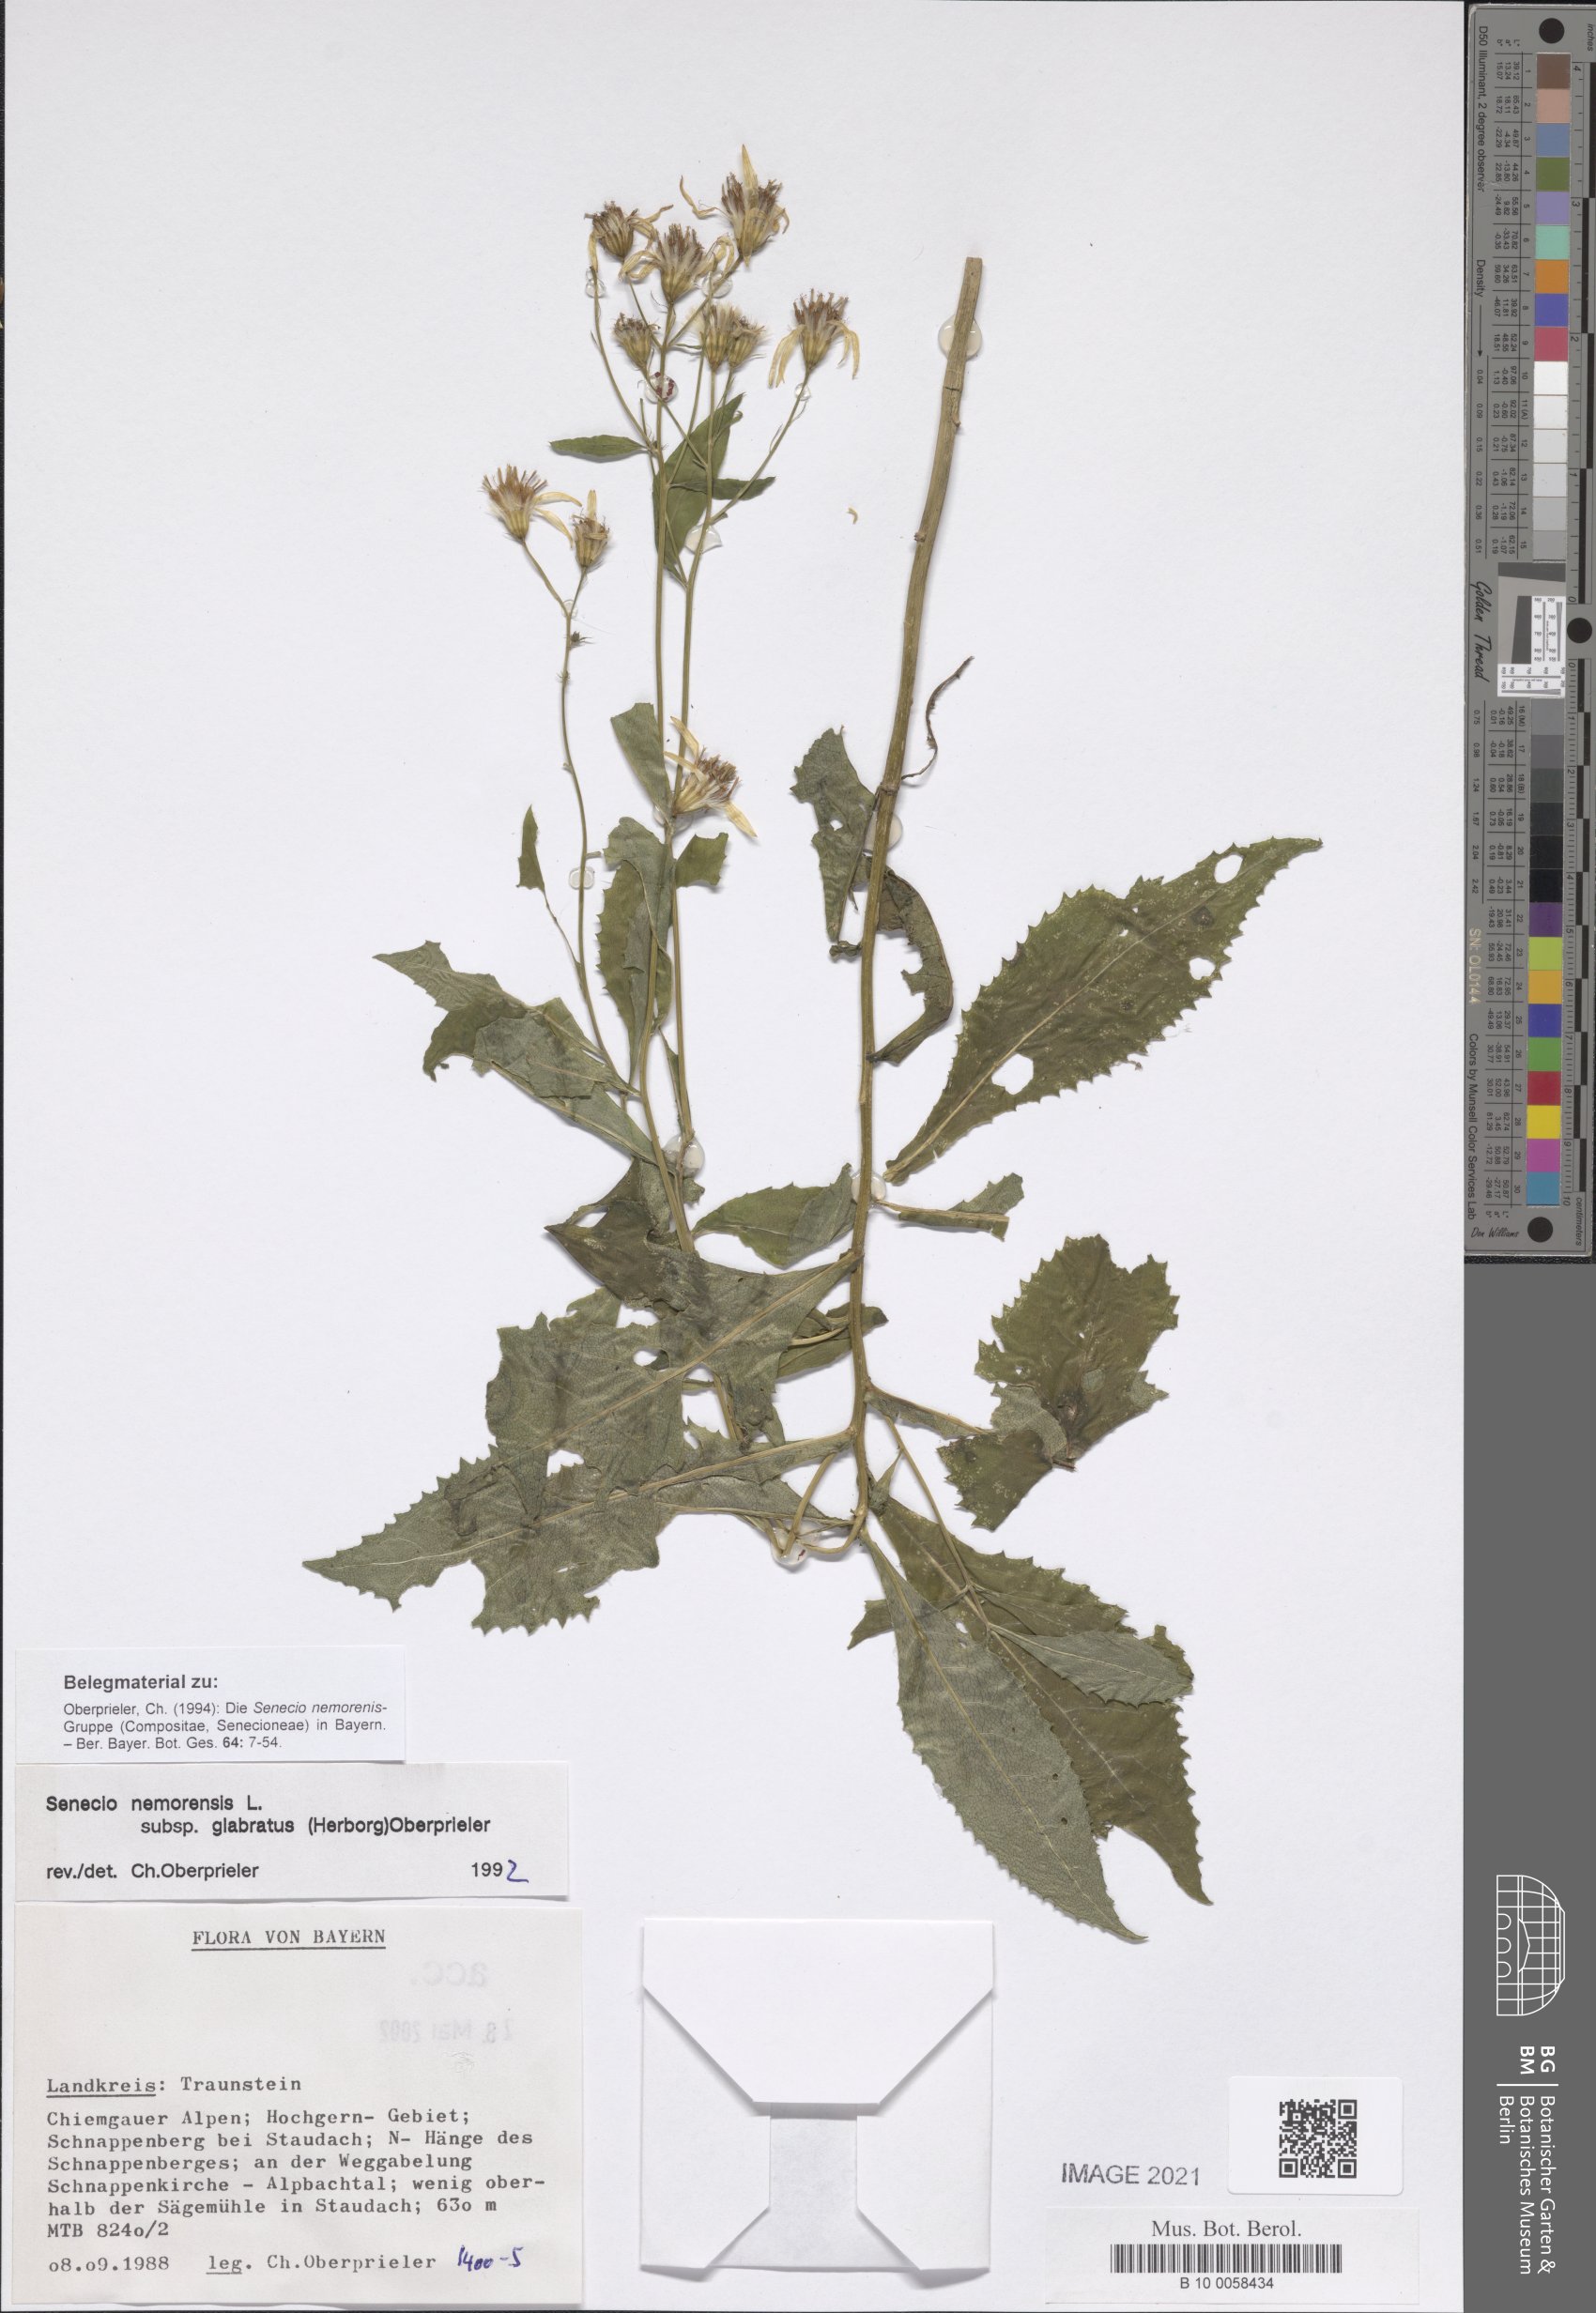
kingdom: Plantae
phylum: Tracheophyta
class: Magnoliopsida
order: Asterales
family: Asteraceae
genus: Senecio
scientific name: Senecio germanicus
